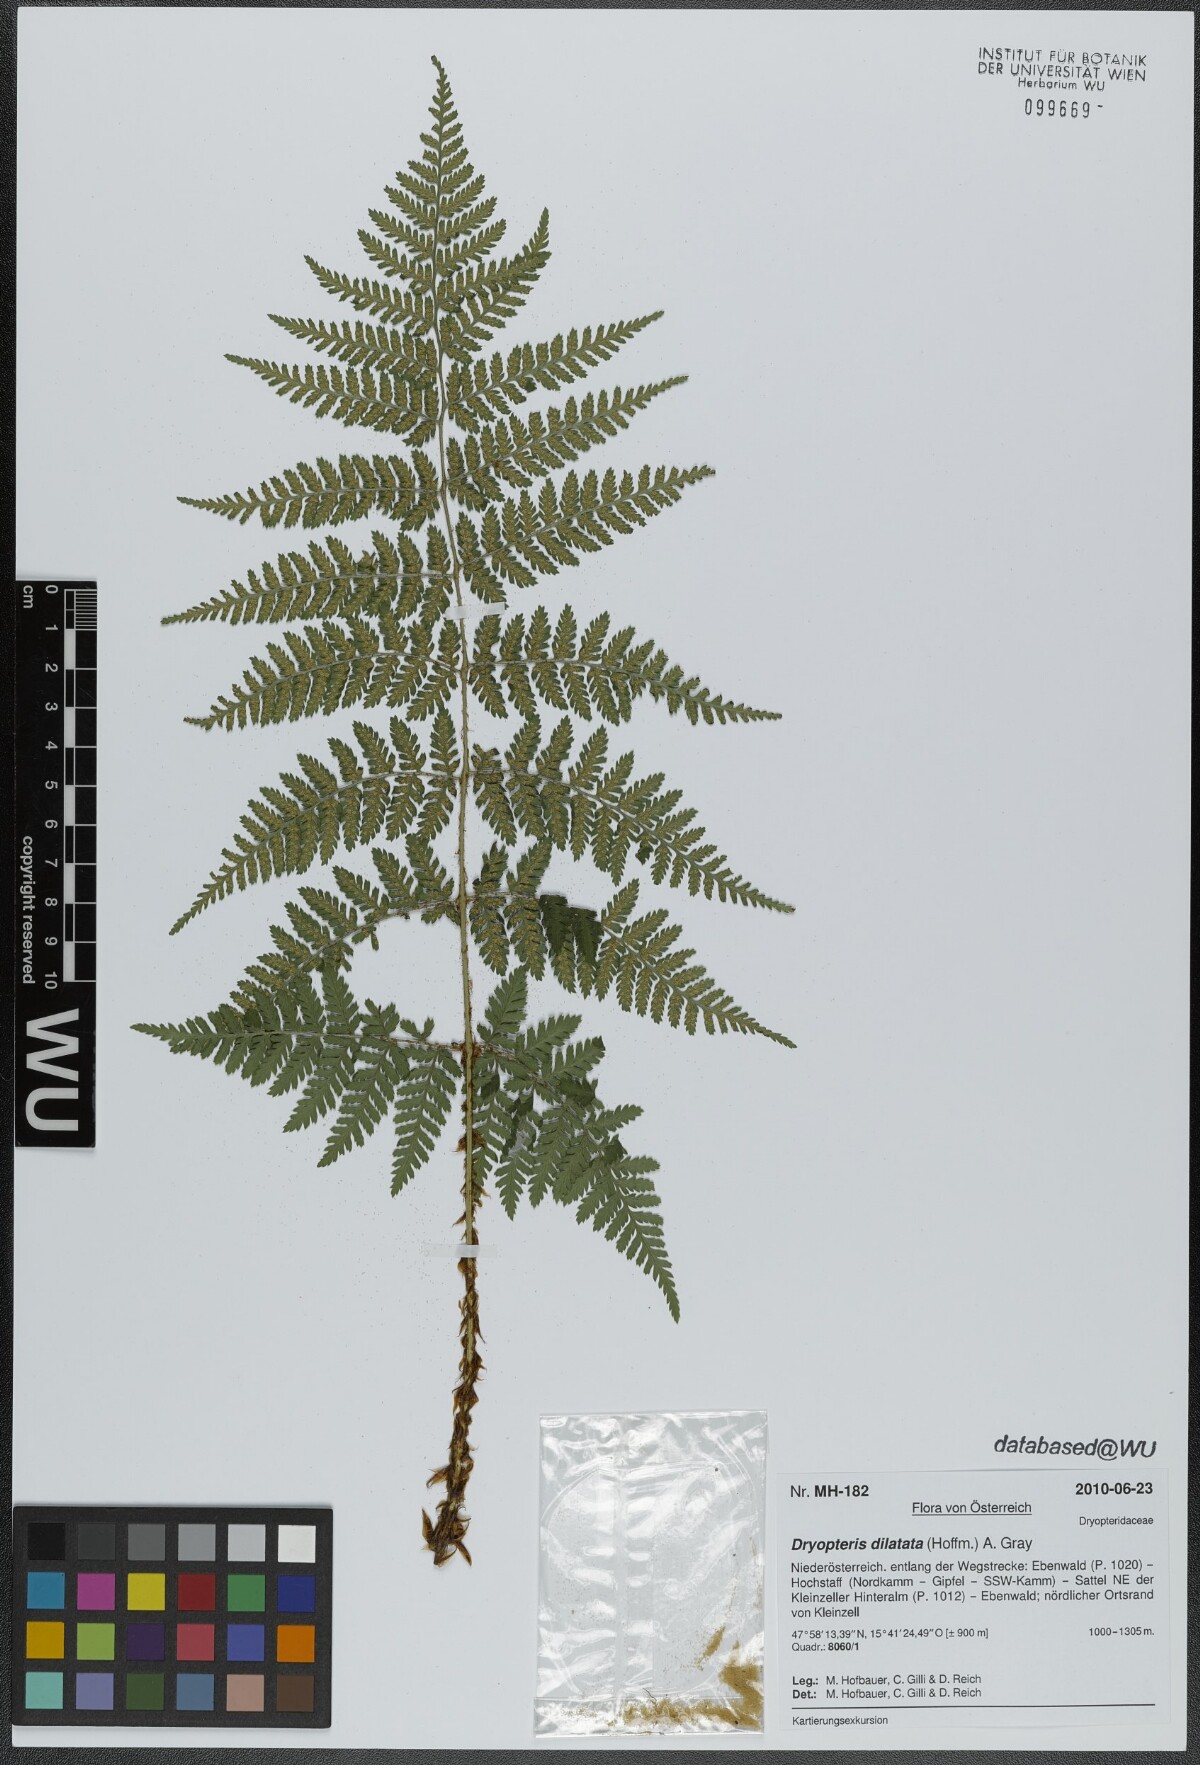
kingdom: Plantae
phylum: Tracheophyta
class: Polypodiopsida
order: Polypodiales
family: Dryopteridaceae
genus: Dryopteris
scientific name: Dryopteris dilatata
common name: Broad buckler-fern
